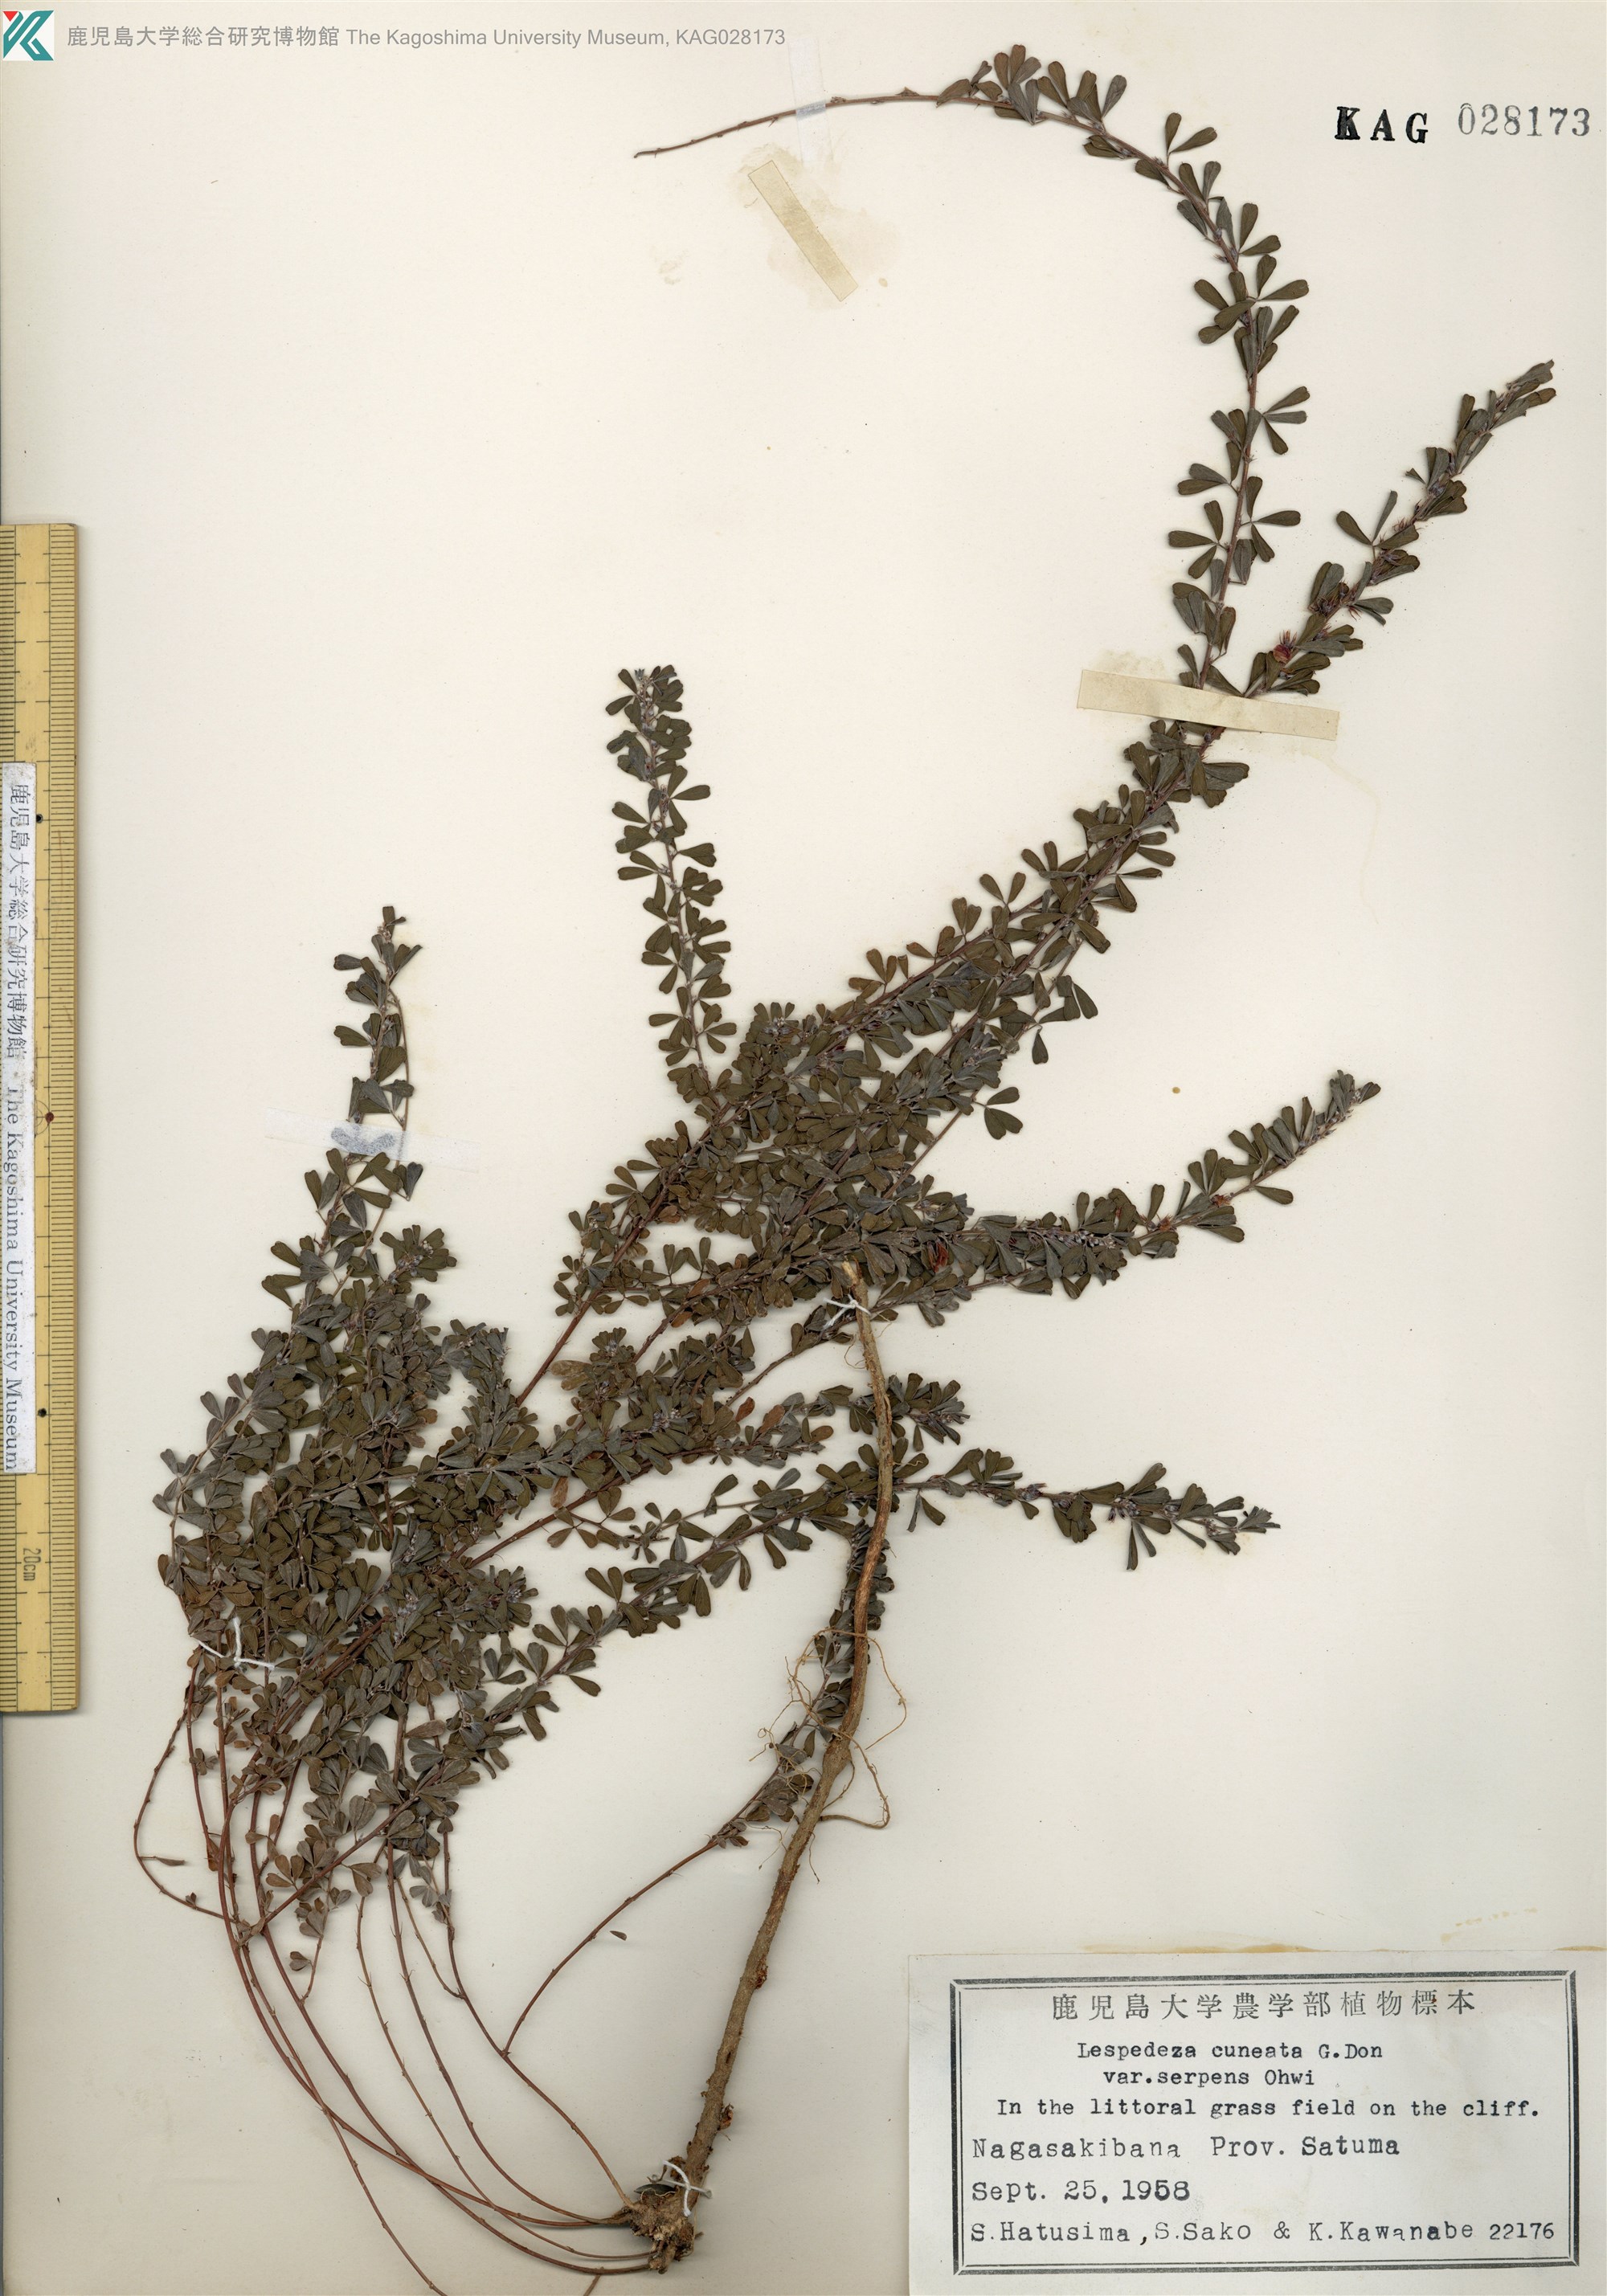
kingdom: Plantae
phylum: Tracheophyta
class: Magnoliopsida
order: Fabales
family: Fabaceae
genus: Lespedeza
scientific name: Lespedeza cuneata
